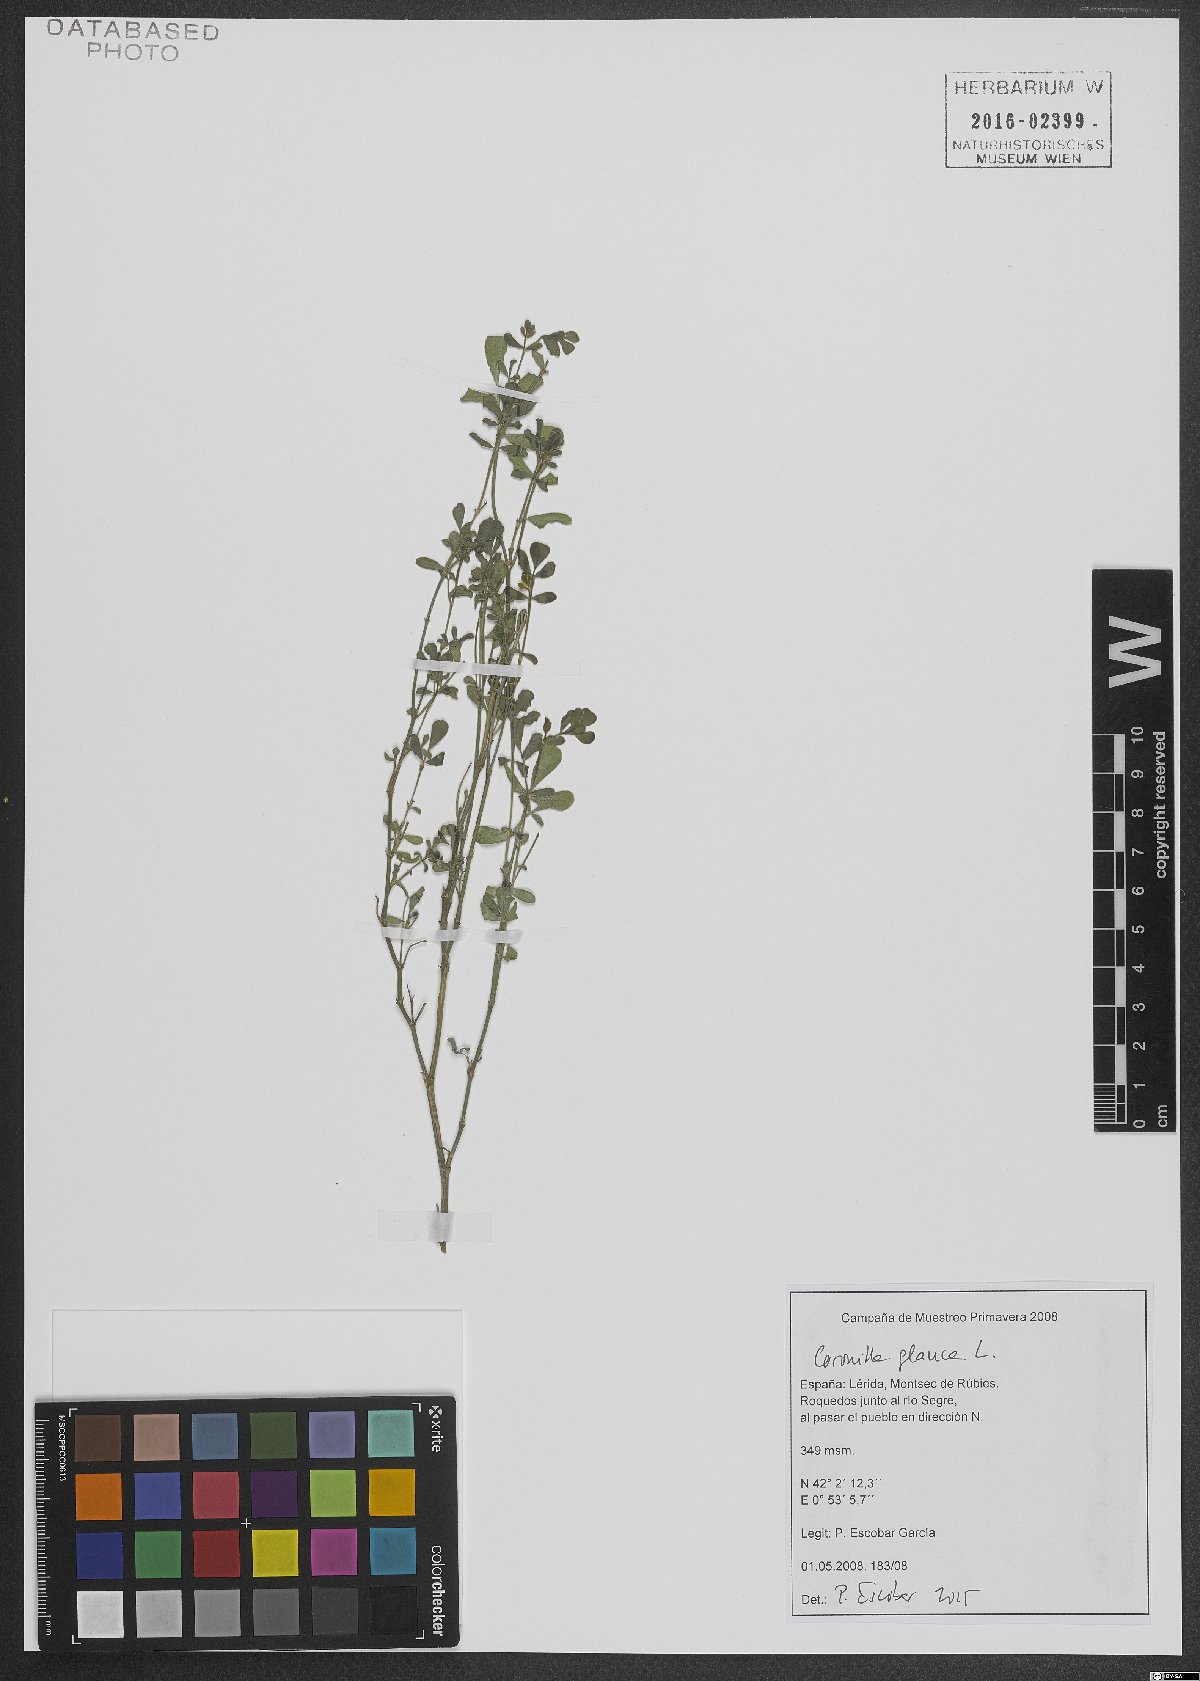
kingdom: Plantae
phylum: Tracheophyta
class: Magnoliopsida
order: Fabales
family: Fabaceae
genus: Coronilla
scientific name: Coronilla valentina
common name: Shrubby scorpion-vetch
